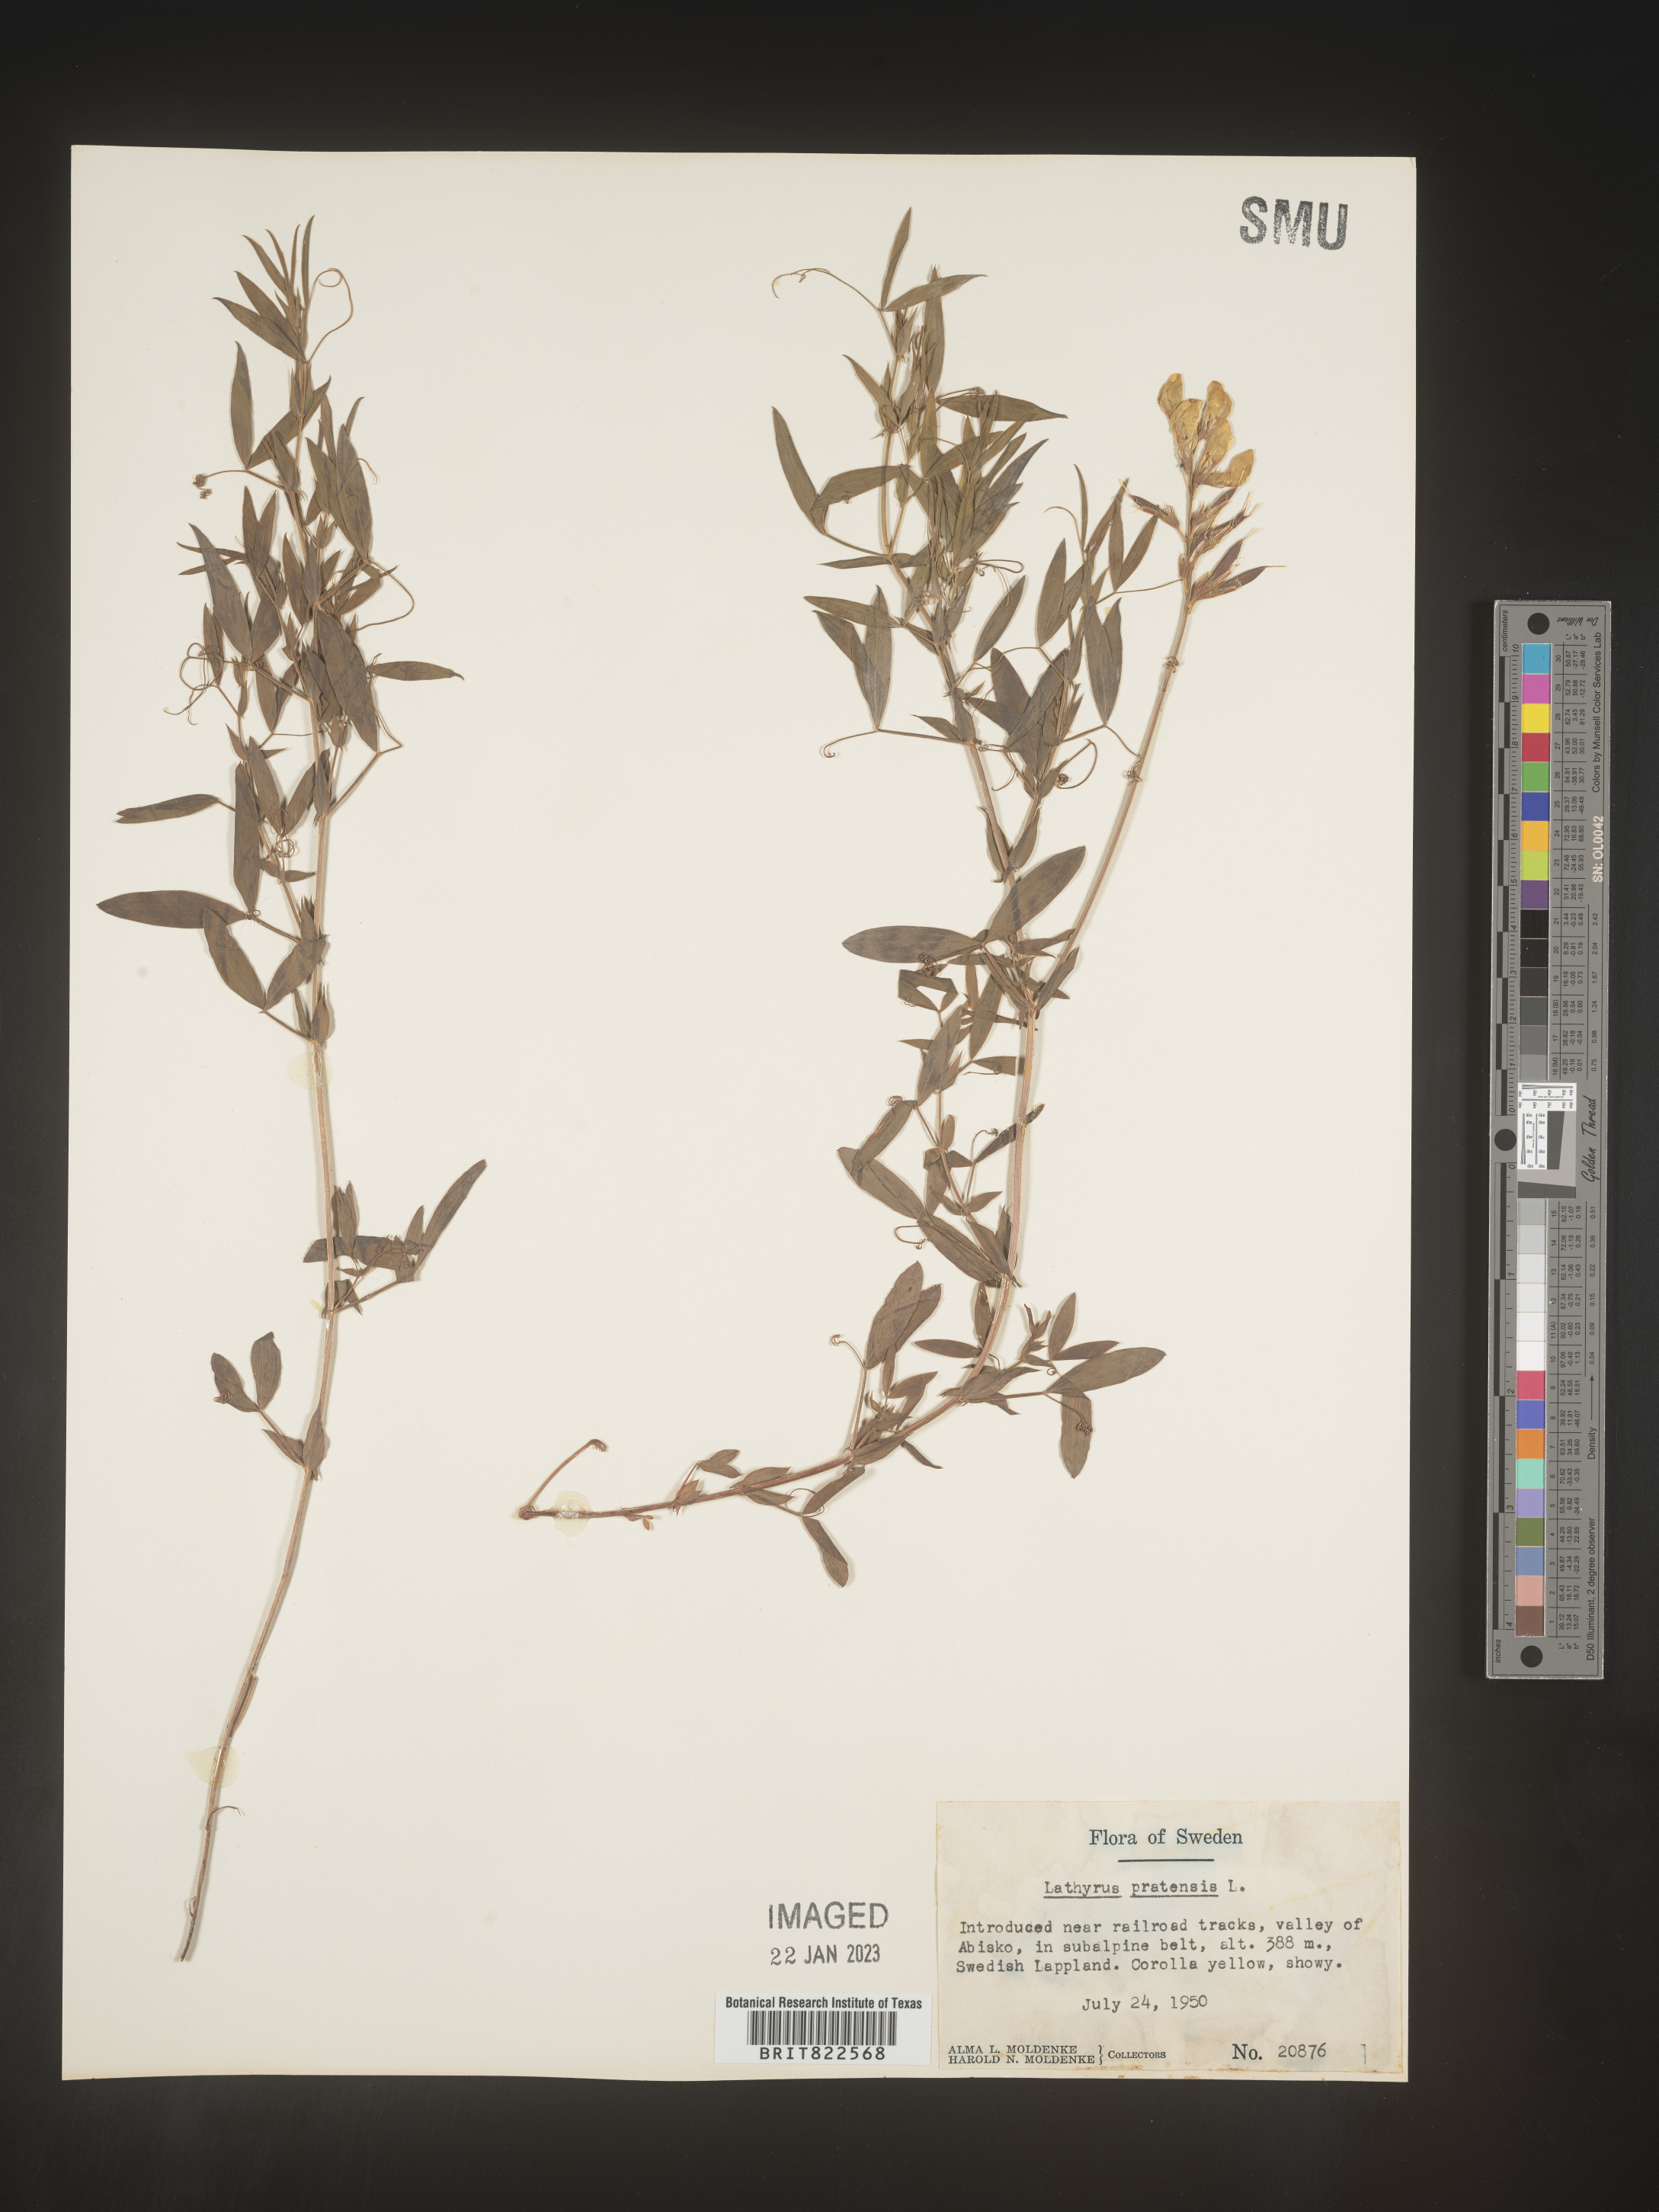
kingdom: Plantae
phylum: Tracheophyta
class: Magnoliopsida
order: Fabales
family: Fabaceae
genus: Lathyrus
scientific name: Lathyrus
